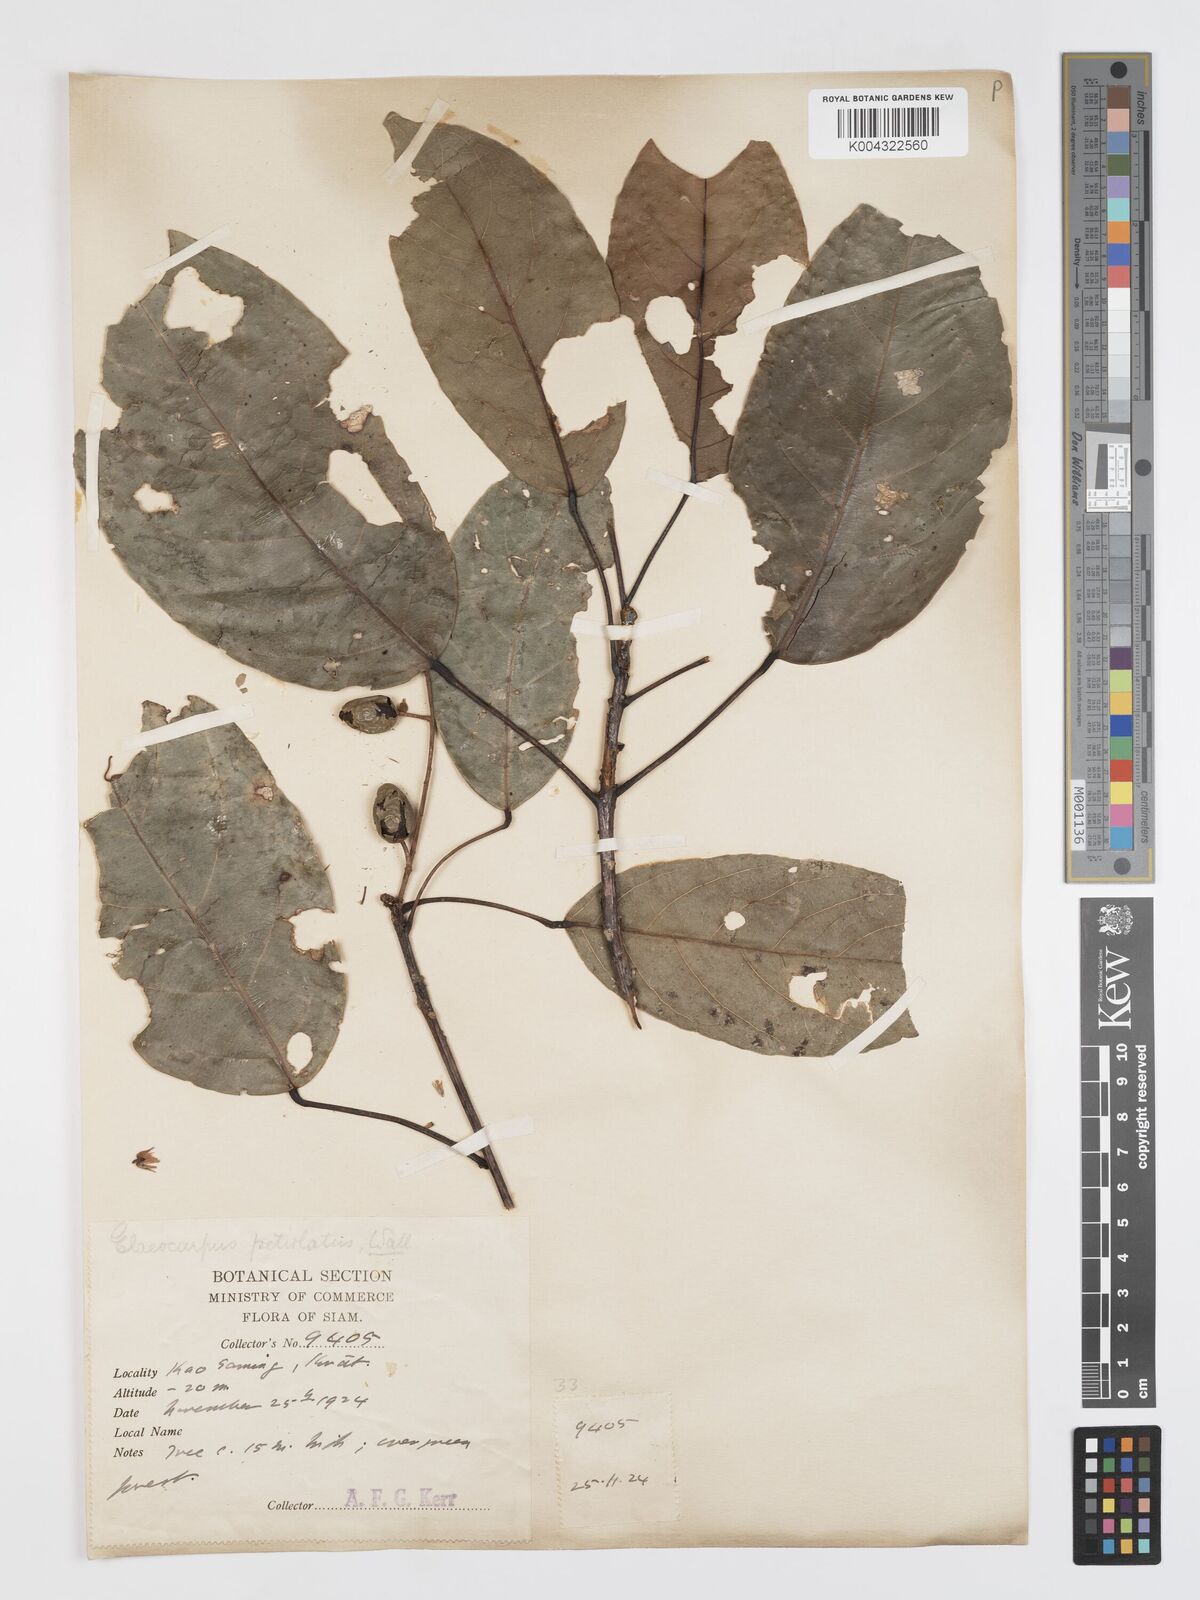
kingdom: Plantae
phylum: Tracheophyta
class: Magnoliopsida
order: Oxalidales
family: Elaeocarpaceae
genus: Elaeocarpus
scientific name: Elaeocarpus petiolatus
